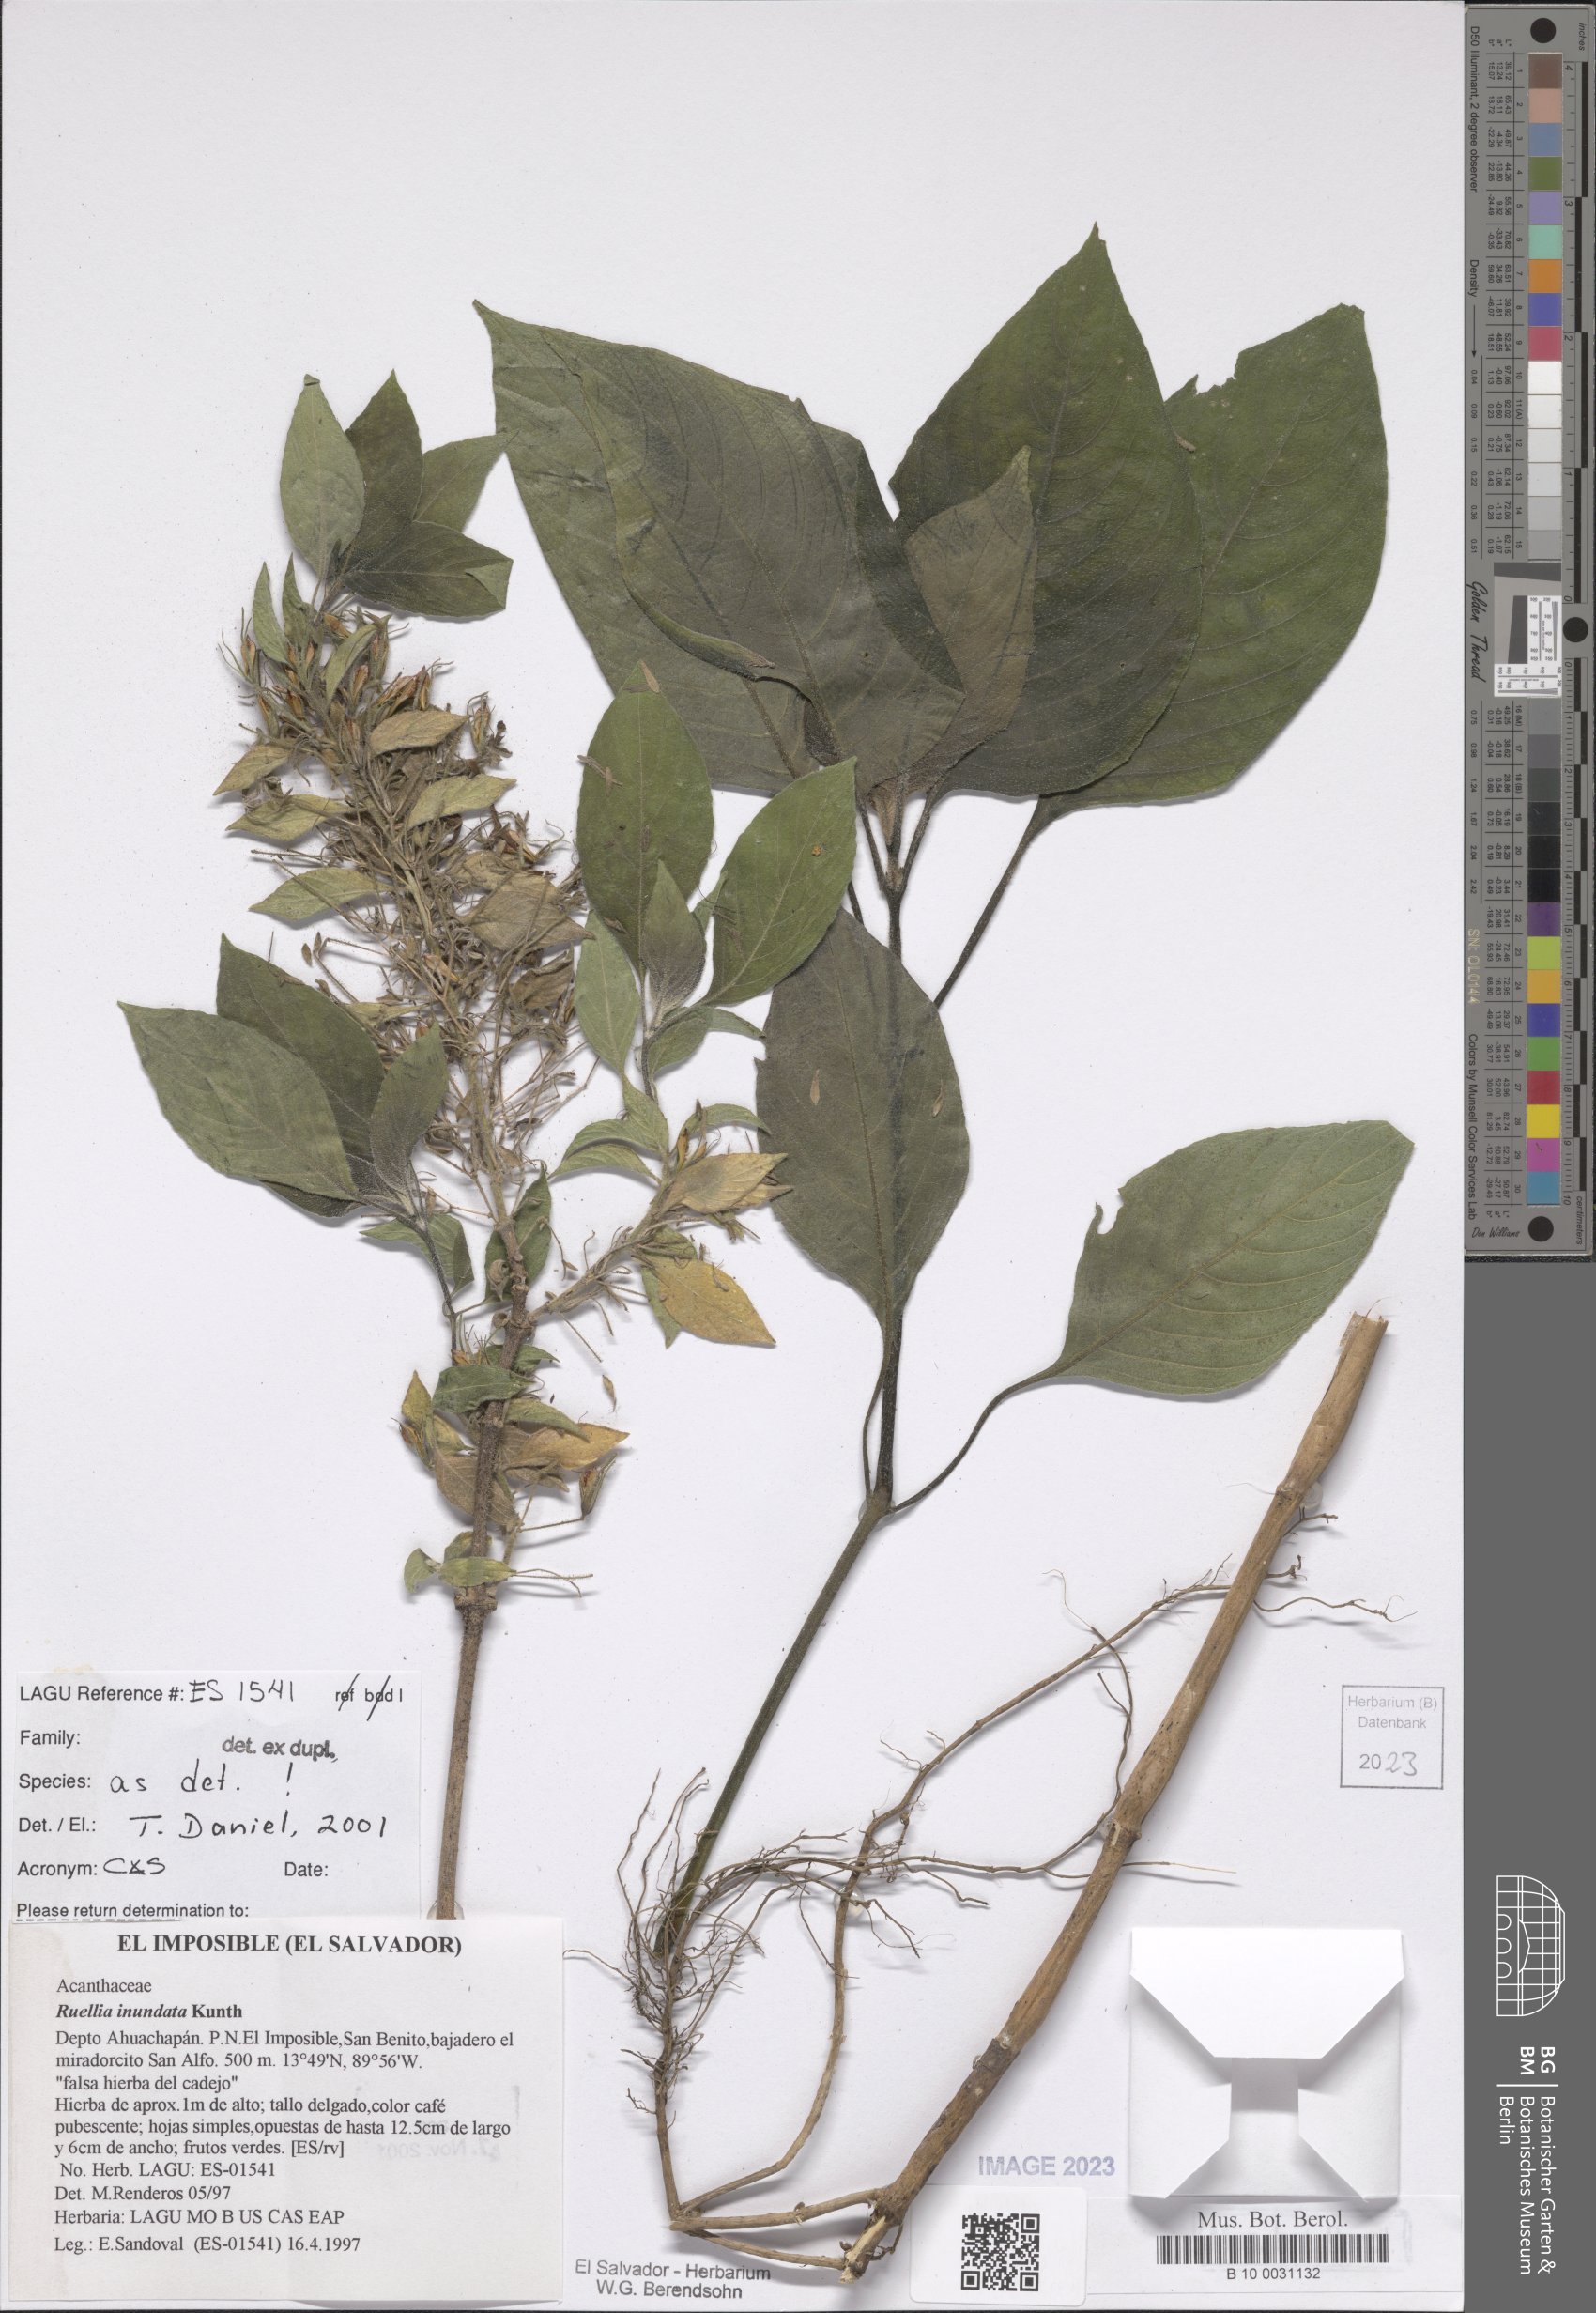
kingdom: Plantae
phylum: Tracheophyta
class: Magnoliopsida
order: Lamiales
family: Acanthaceae
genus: Ruellia
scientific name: Ruellia inundata
